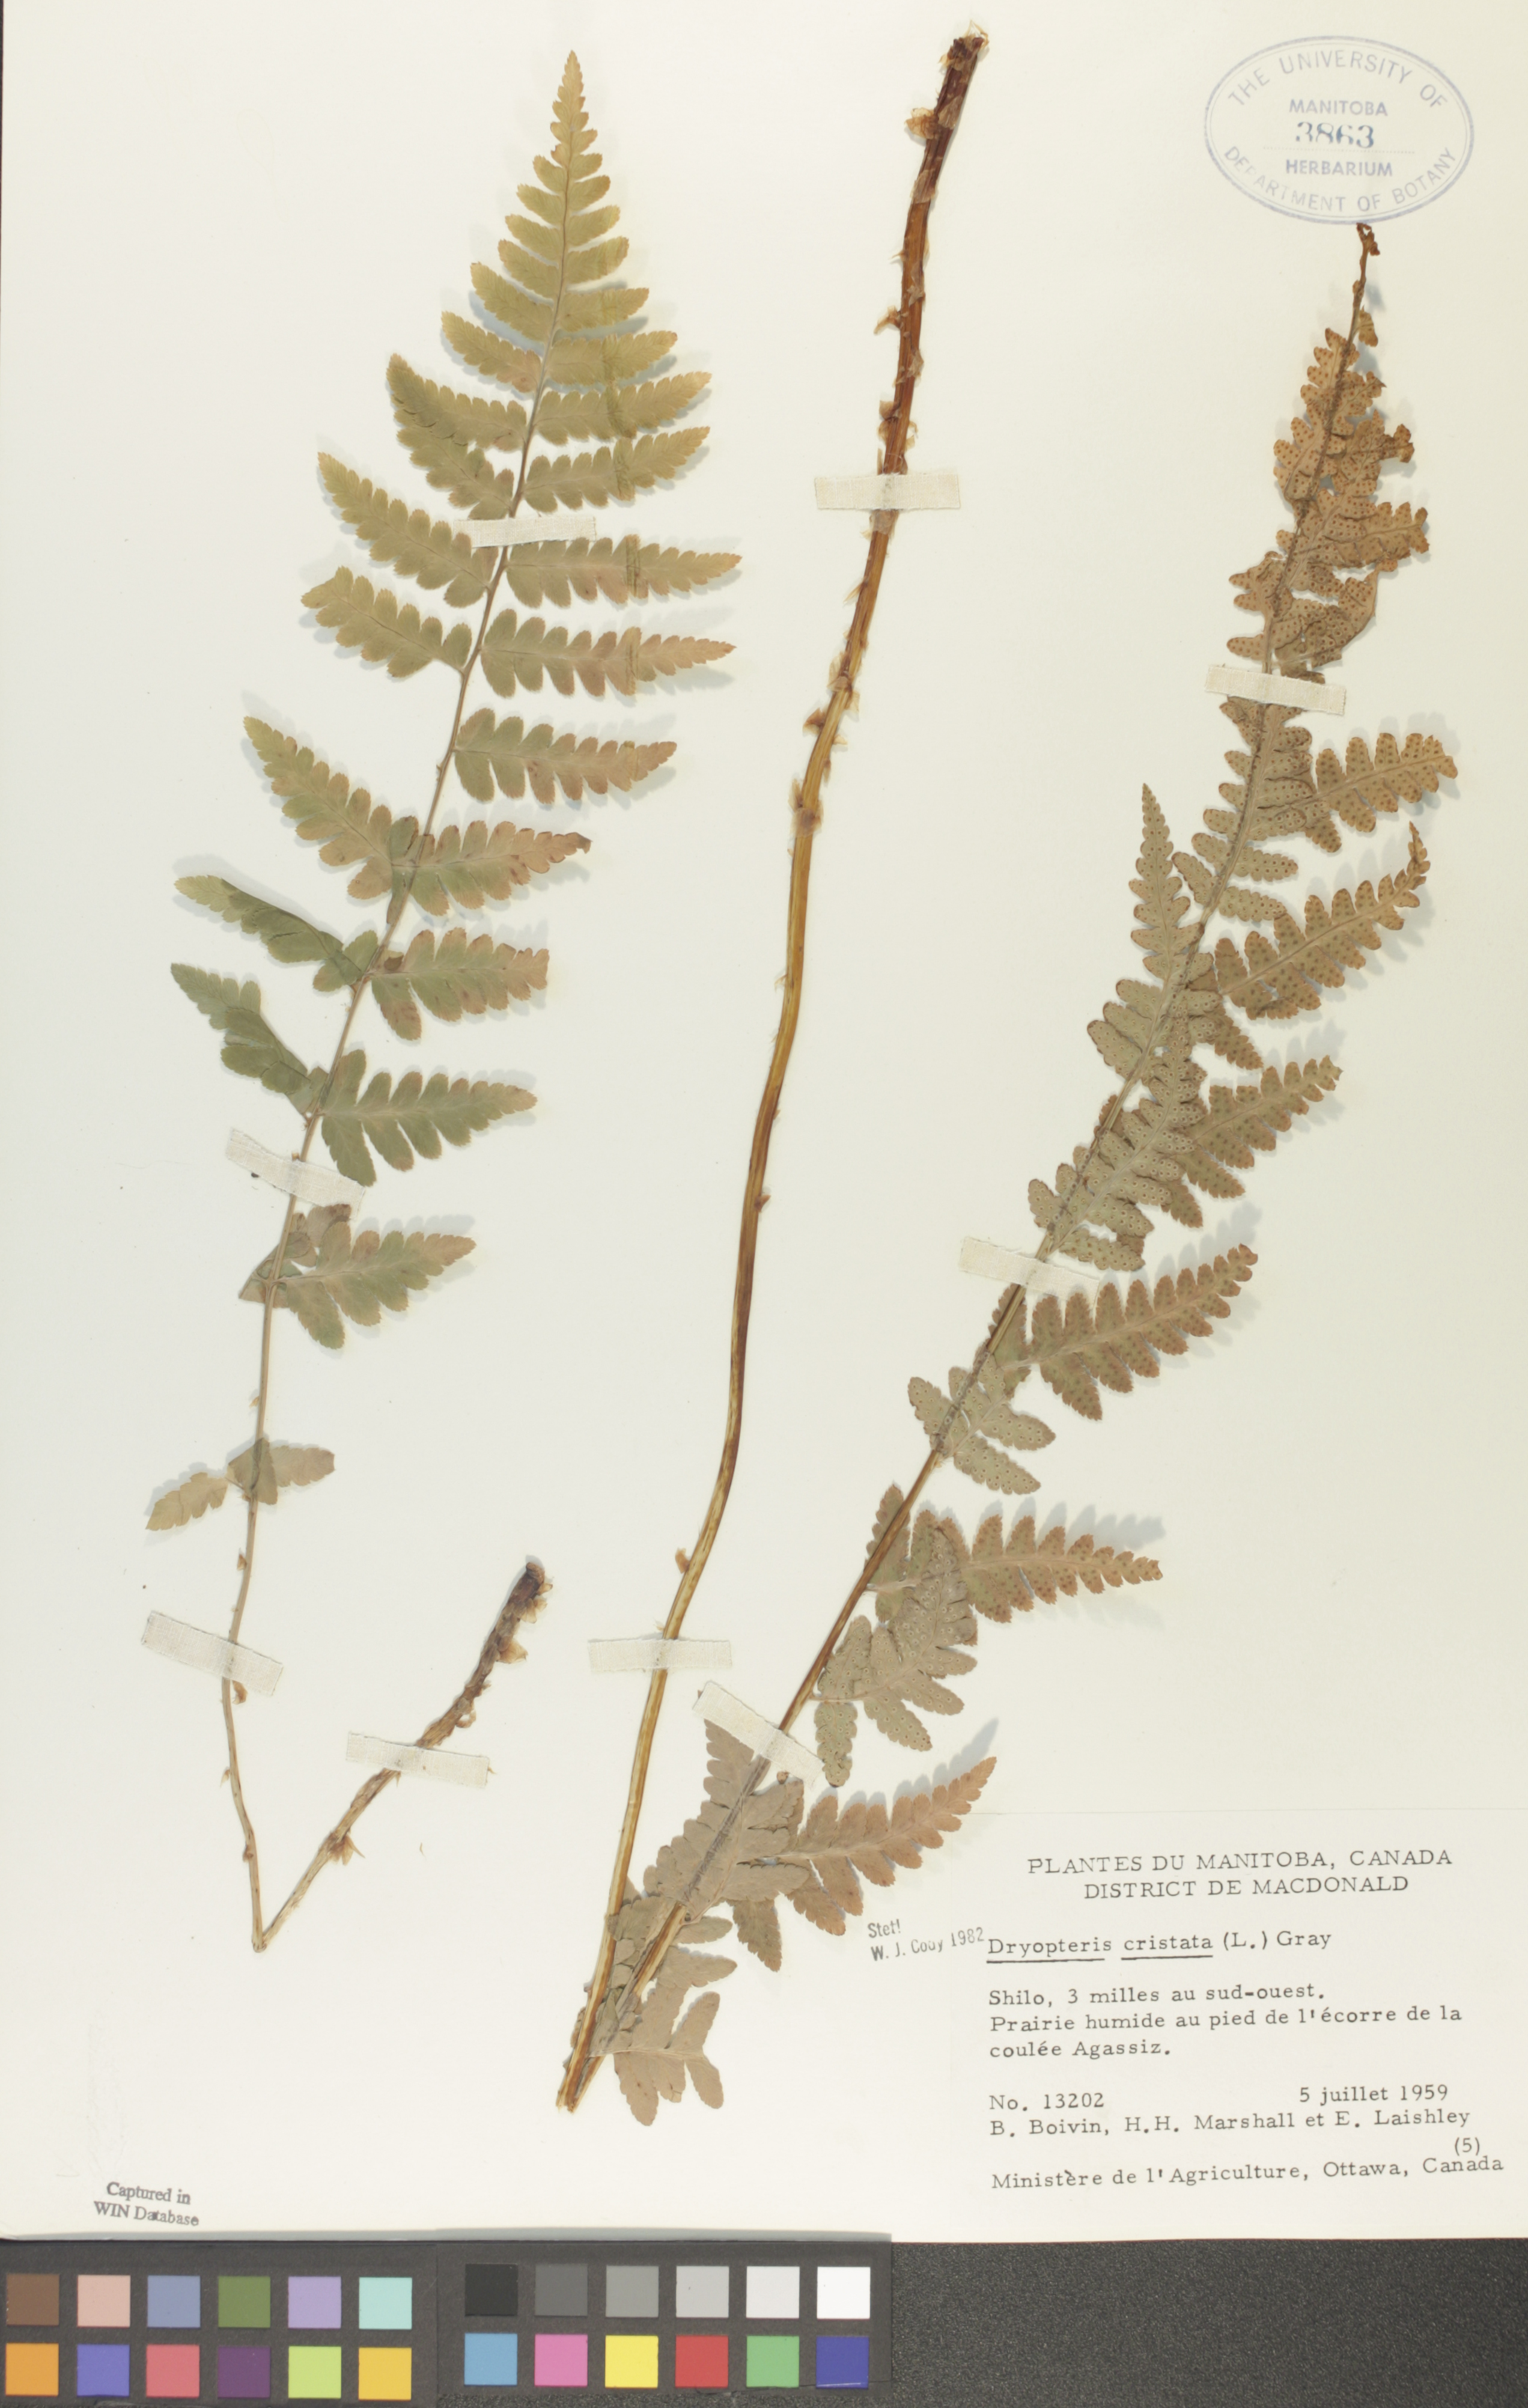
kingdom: Plantae
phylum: Tracheophyta
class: Polypodiopsida
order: Polypodiales
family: Dryopteridaceae
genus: Dryopteris
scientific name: Dryopteris cristata
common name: Crested wood fern
